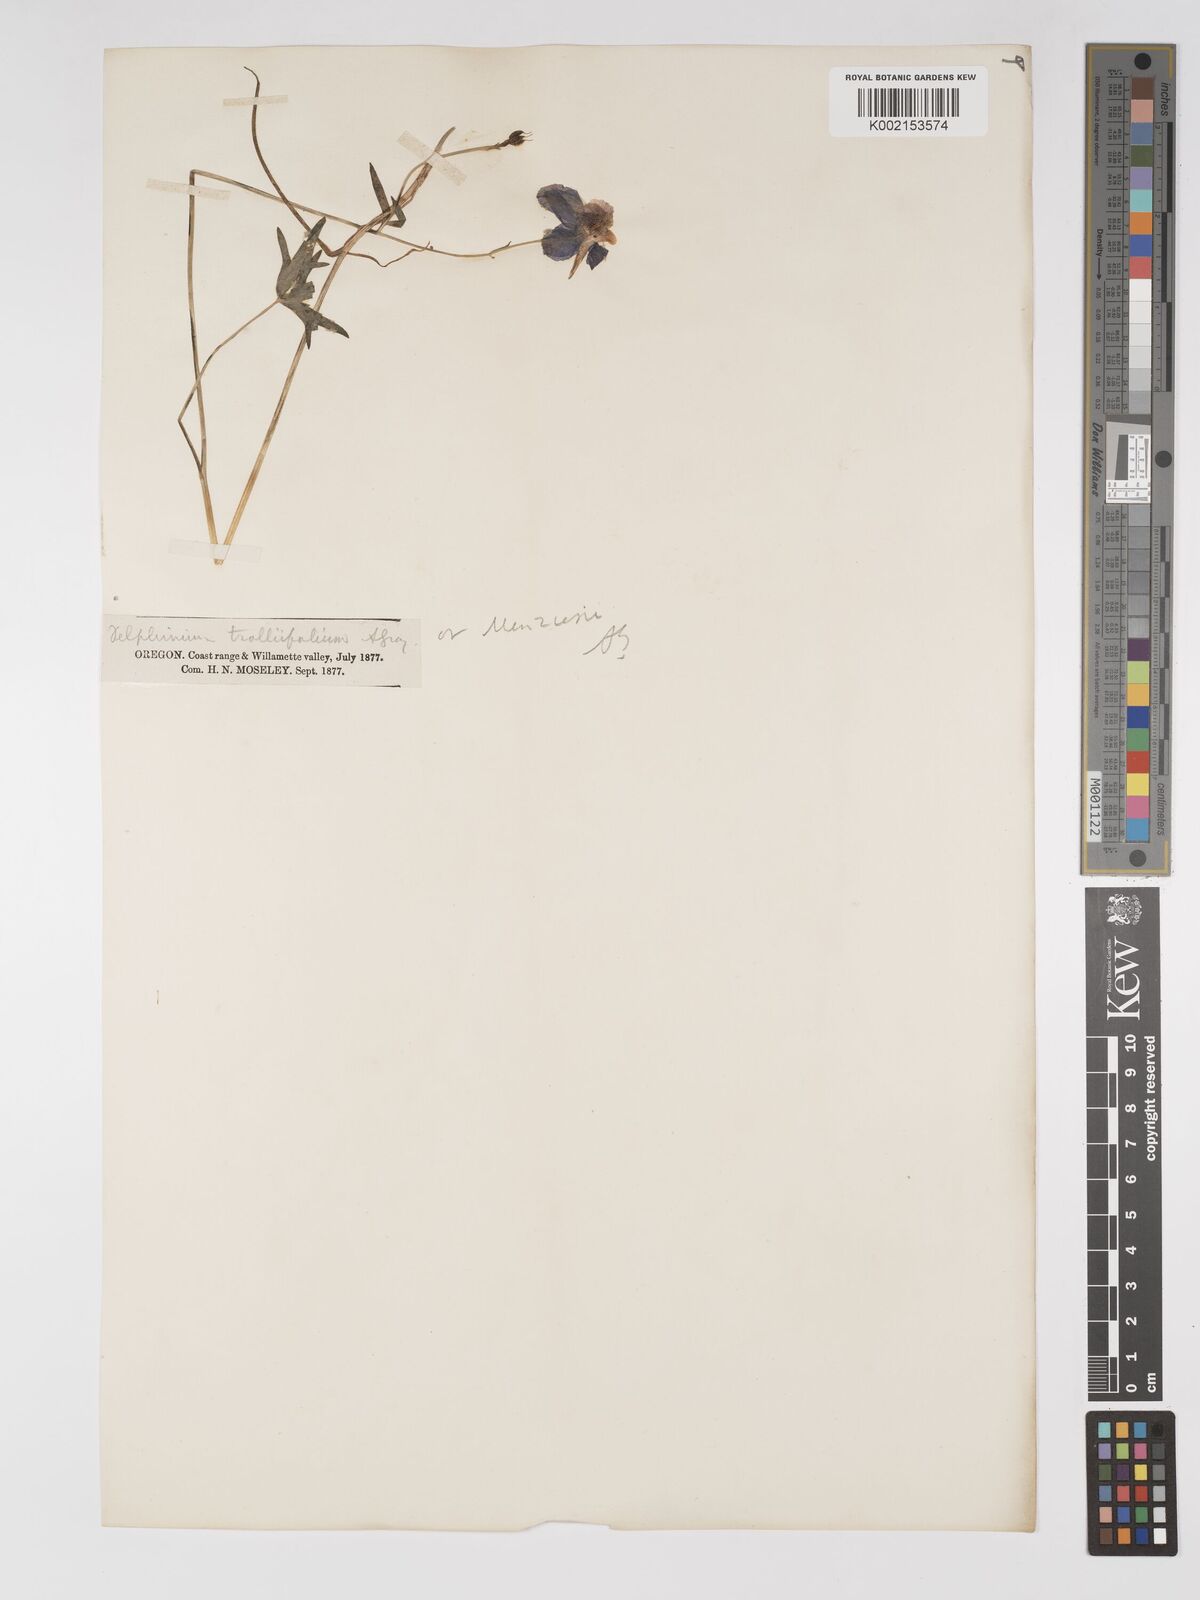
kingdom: Plantae
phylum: Tracheophyta
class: Magnoliopsida
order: Ranunculales
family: Ranunculaceae
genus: Delphinium
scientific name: Delphinium trolliifolium
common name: Cow-poison
